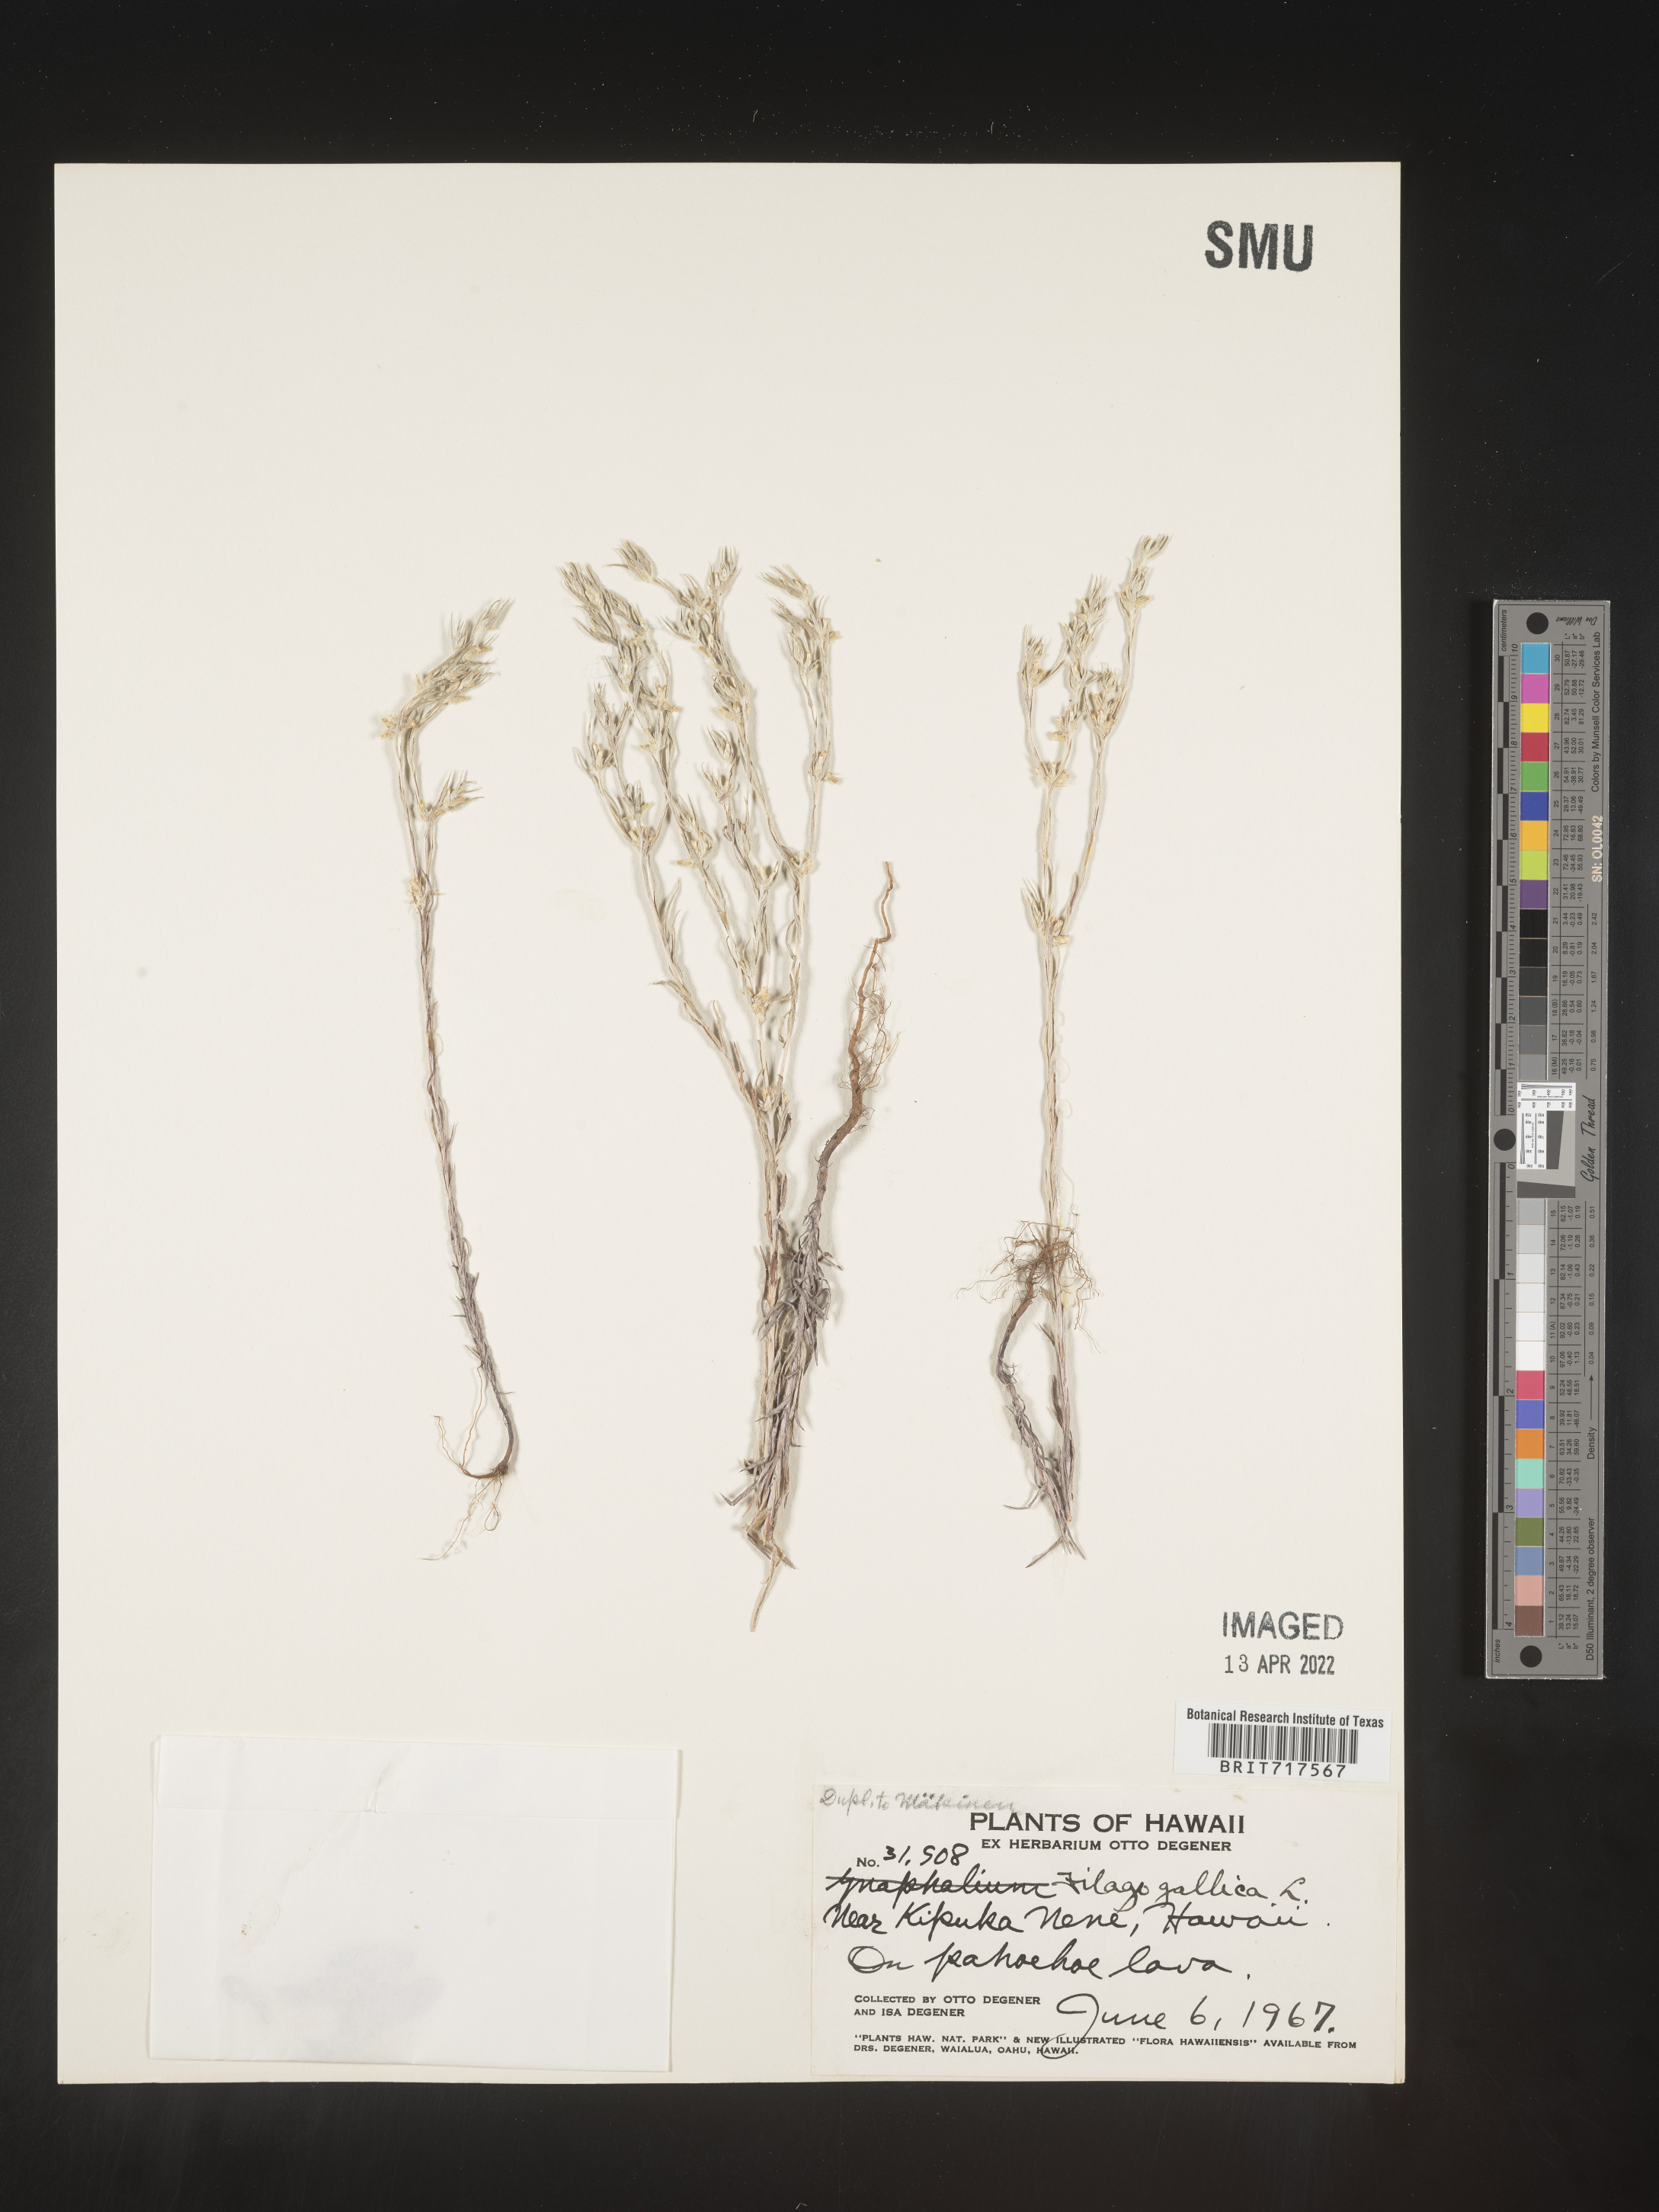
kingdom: Plantae
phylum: Tracheophyta
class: Magnoliopsida
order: Asterales
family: Asteraceae
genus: Filago
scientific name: Filago
